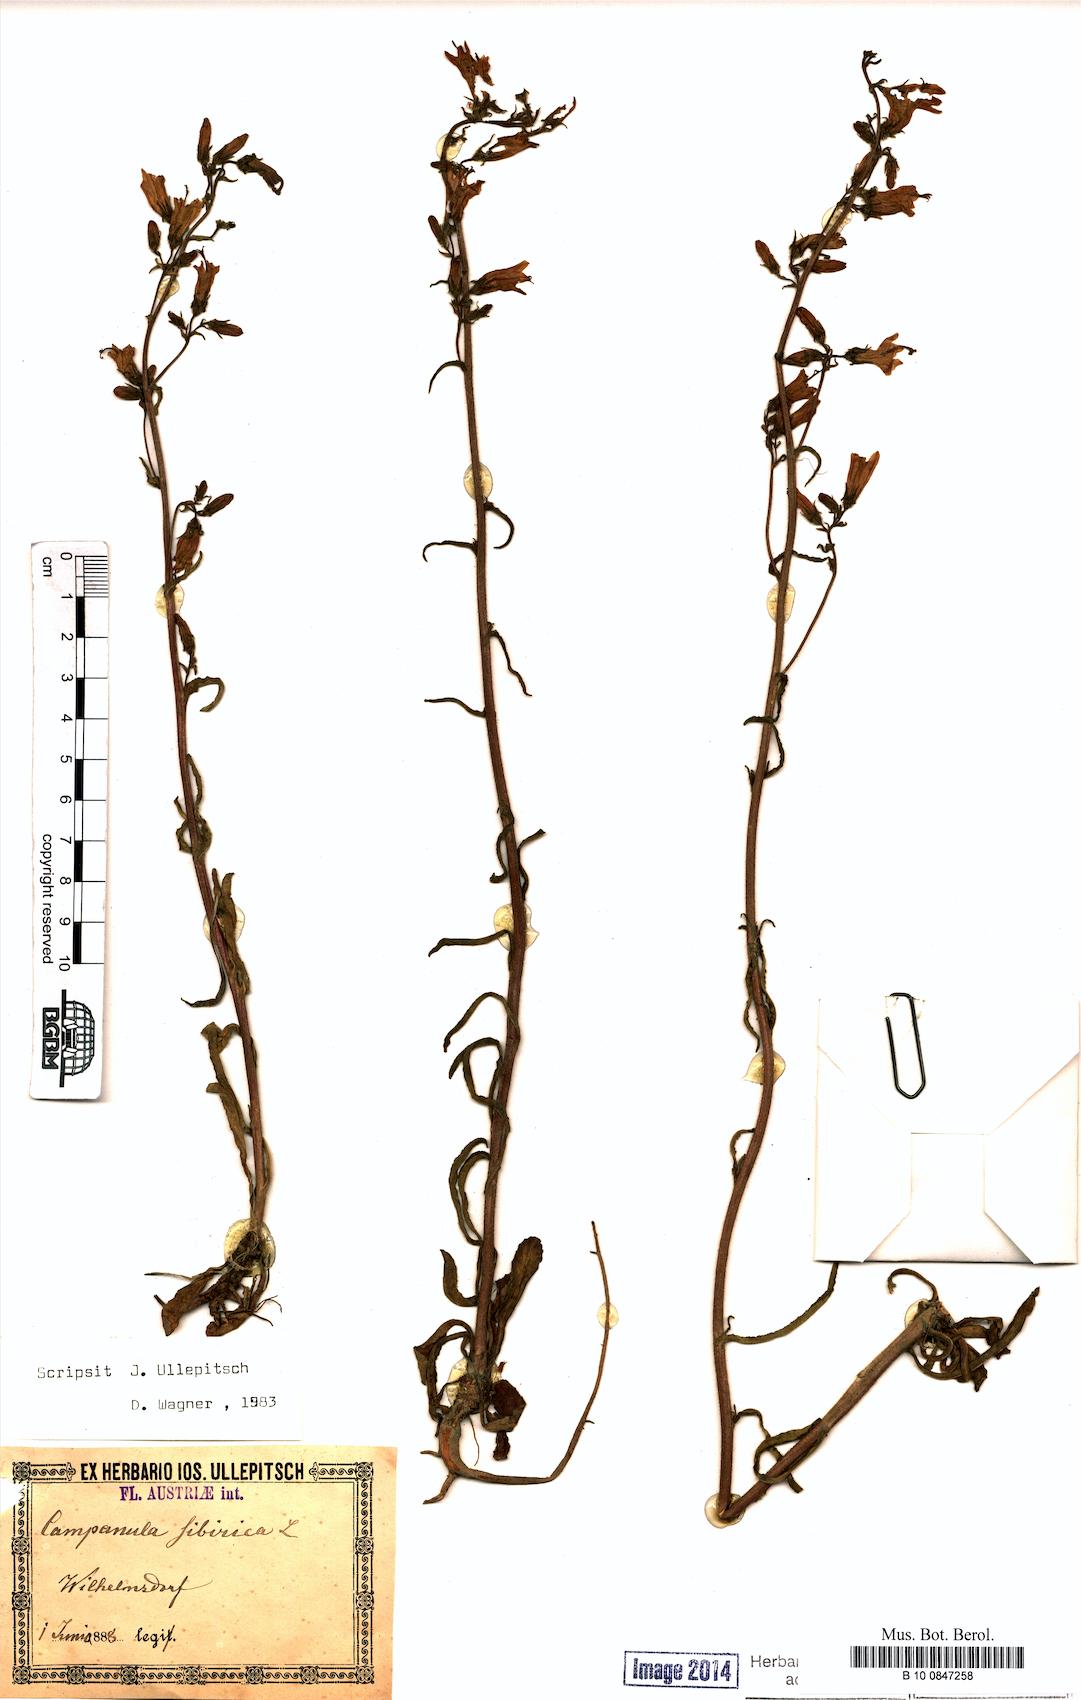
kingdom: Plantae
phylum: Tracheophyta
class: Magnoliopsida
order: Asterales
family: Campanulaceae
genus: Campanula
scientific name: Campanula sibirica
